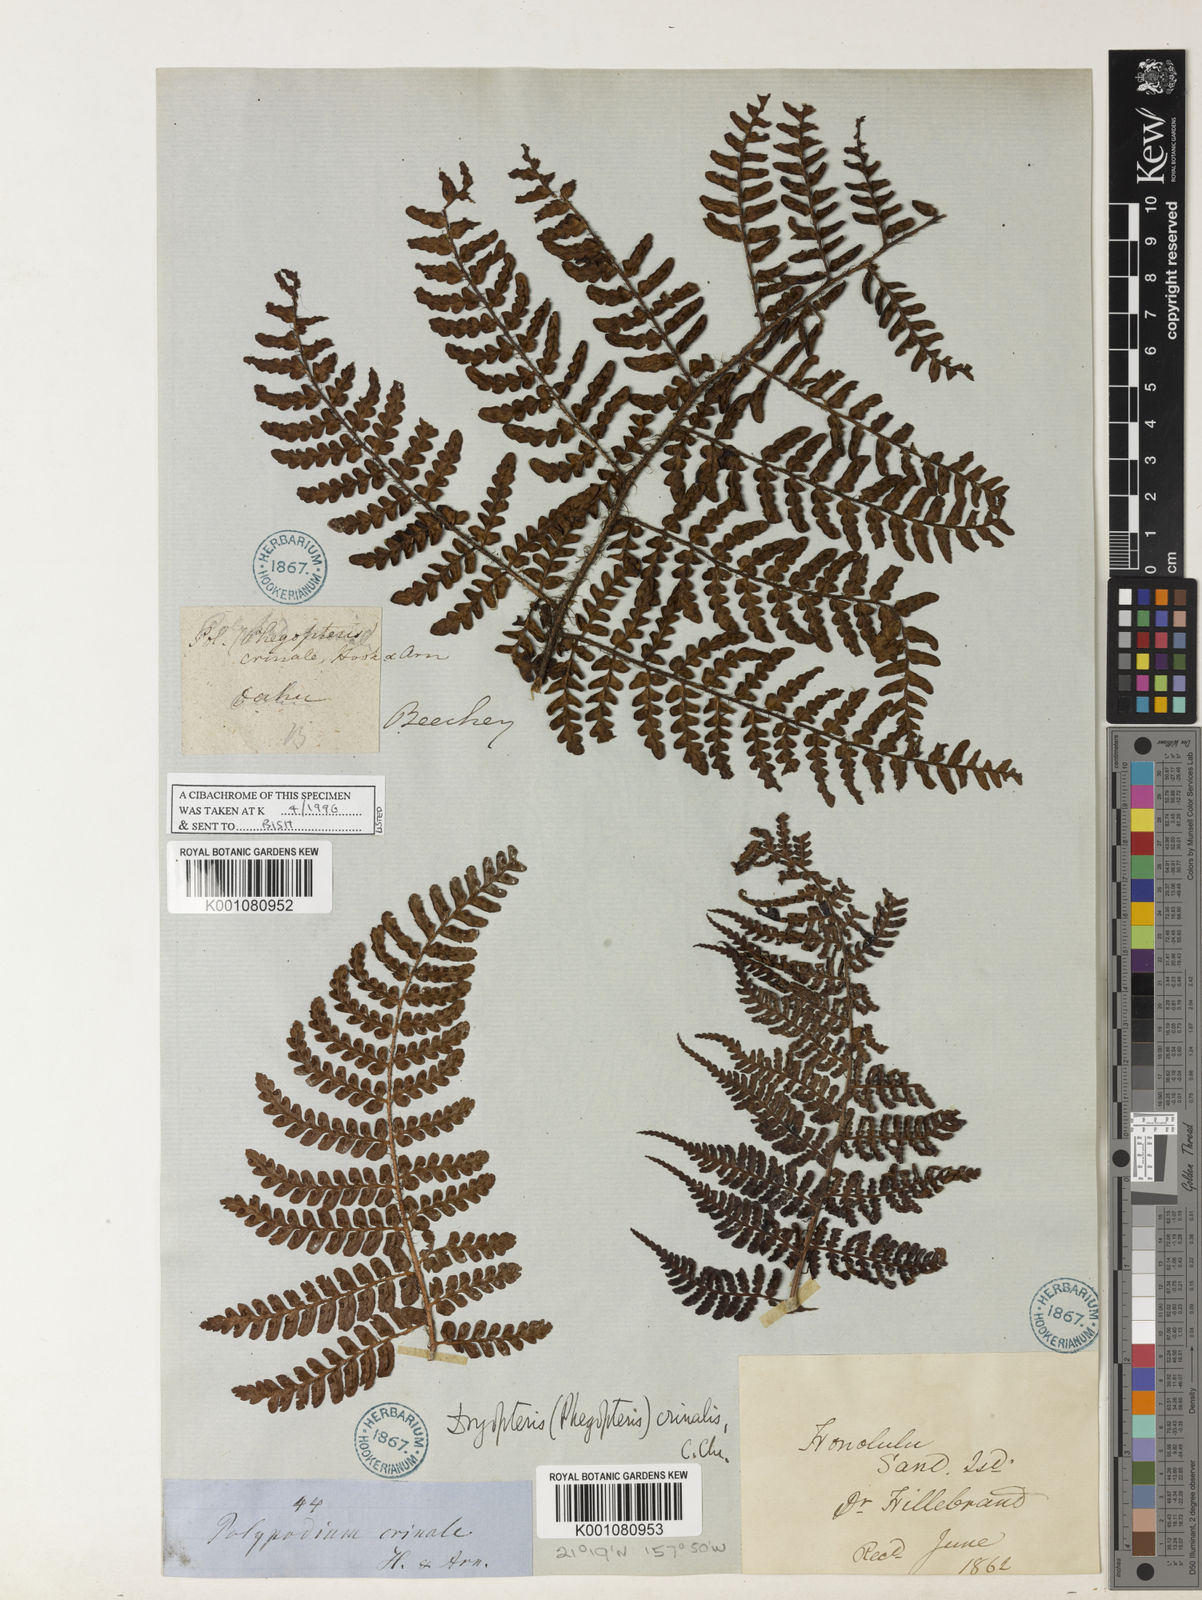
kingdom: Plantae
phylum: Tracheophyta
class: Polypodiopsida
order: Polypodiales
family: Dryopteridaceae
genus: Dryopteris
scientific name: Dryopteris crinalis
